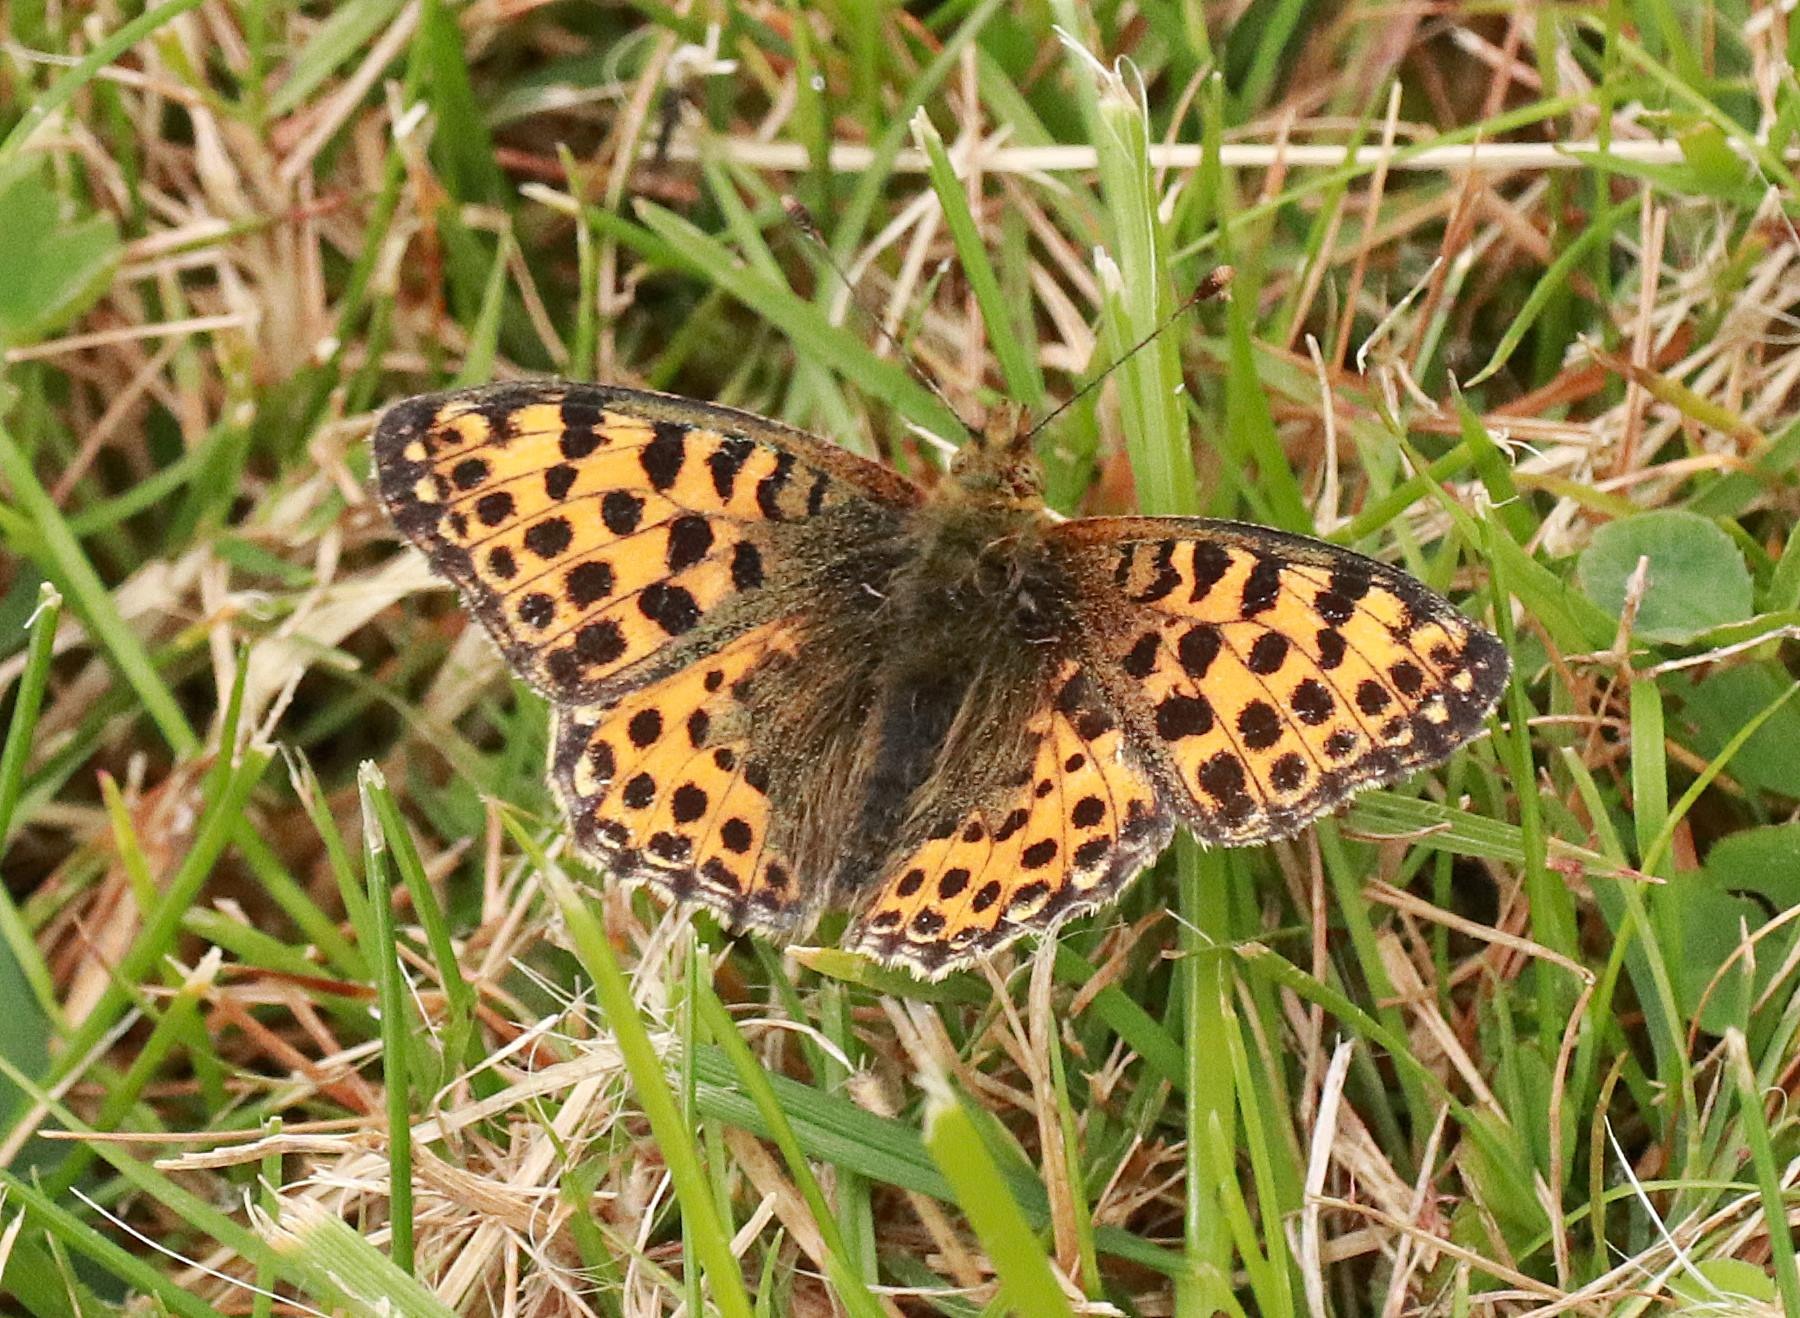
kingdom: Animalia
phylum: Arthropoda
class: Insecta
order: Lepidoptera
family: Nymphalidae
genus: Issoria
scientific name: Issoria lathonia
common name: Storplettet perlemorsommerfugl
